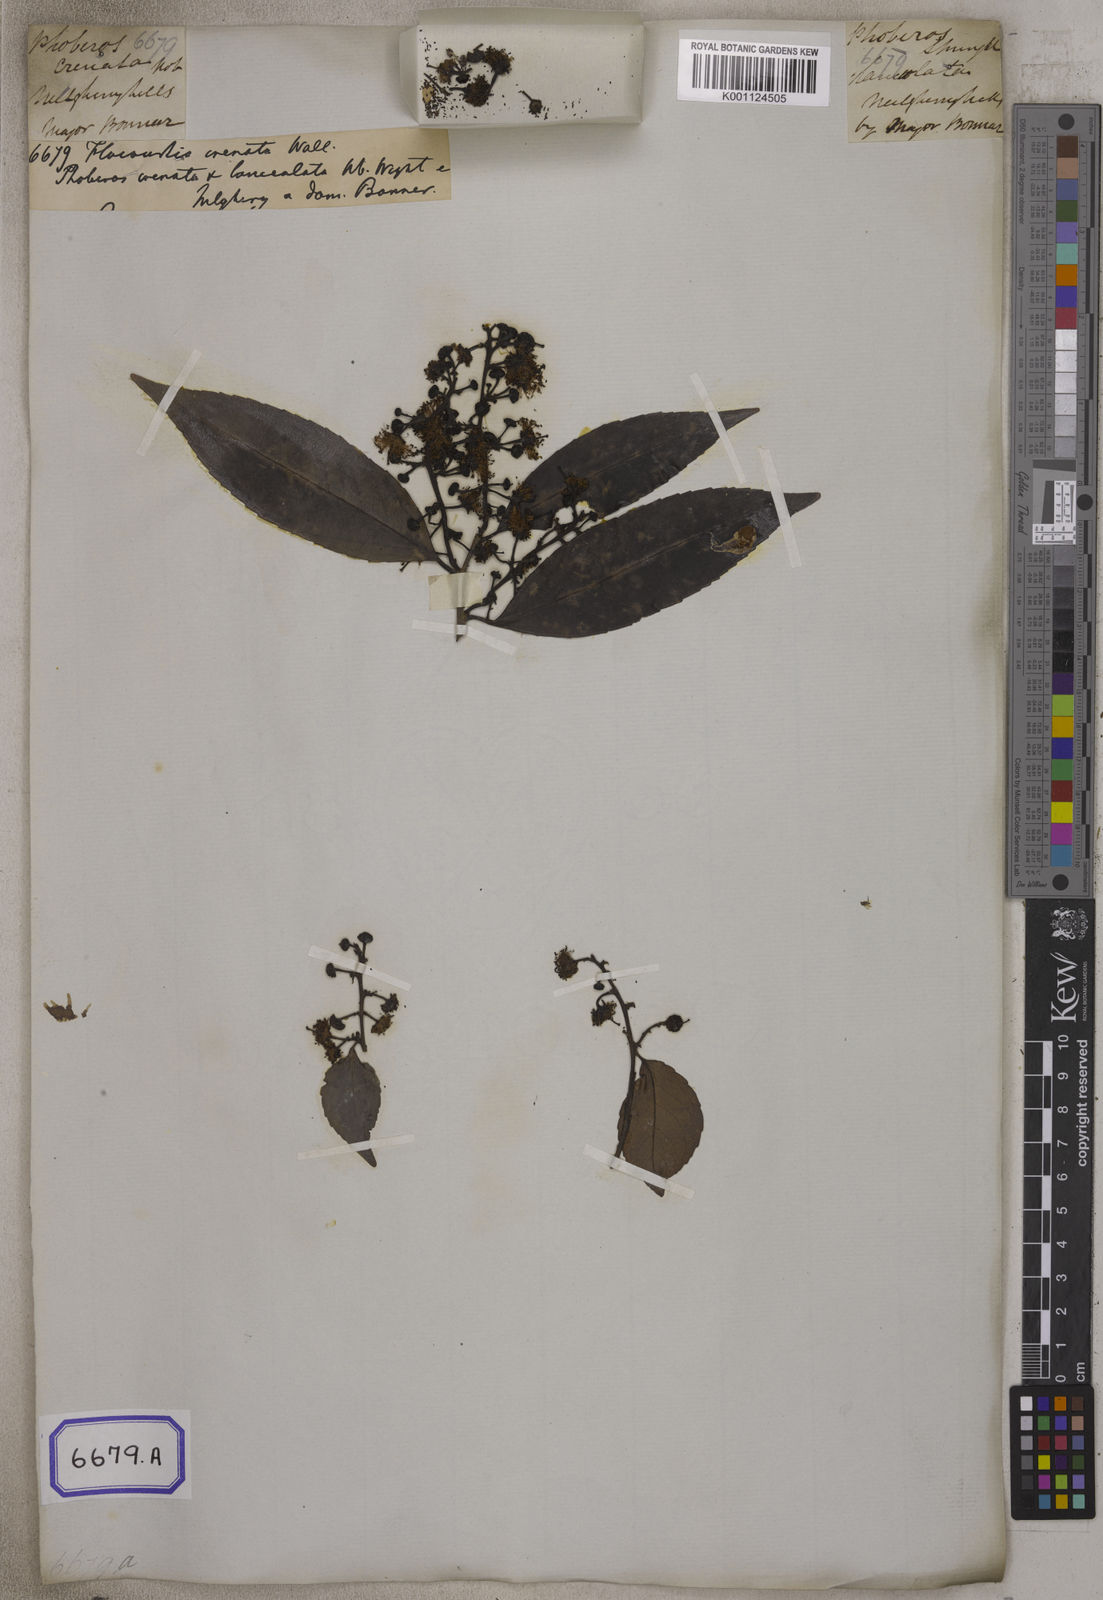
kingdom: Plantae
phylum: Tracheophyta
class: Magnoliopsida
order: Malpighiales
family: Salicaceae
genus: Scolopia
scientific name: Scolopia luzonensis
